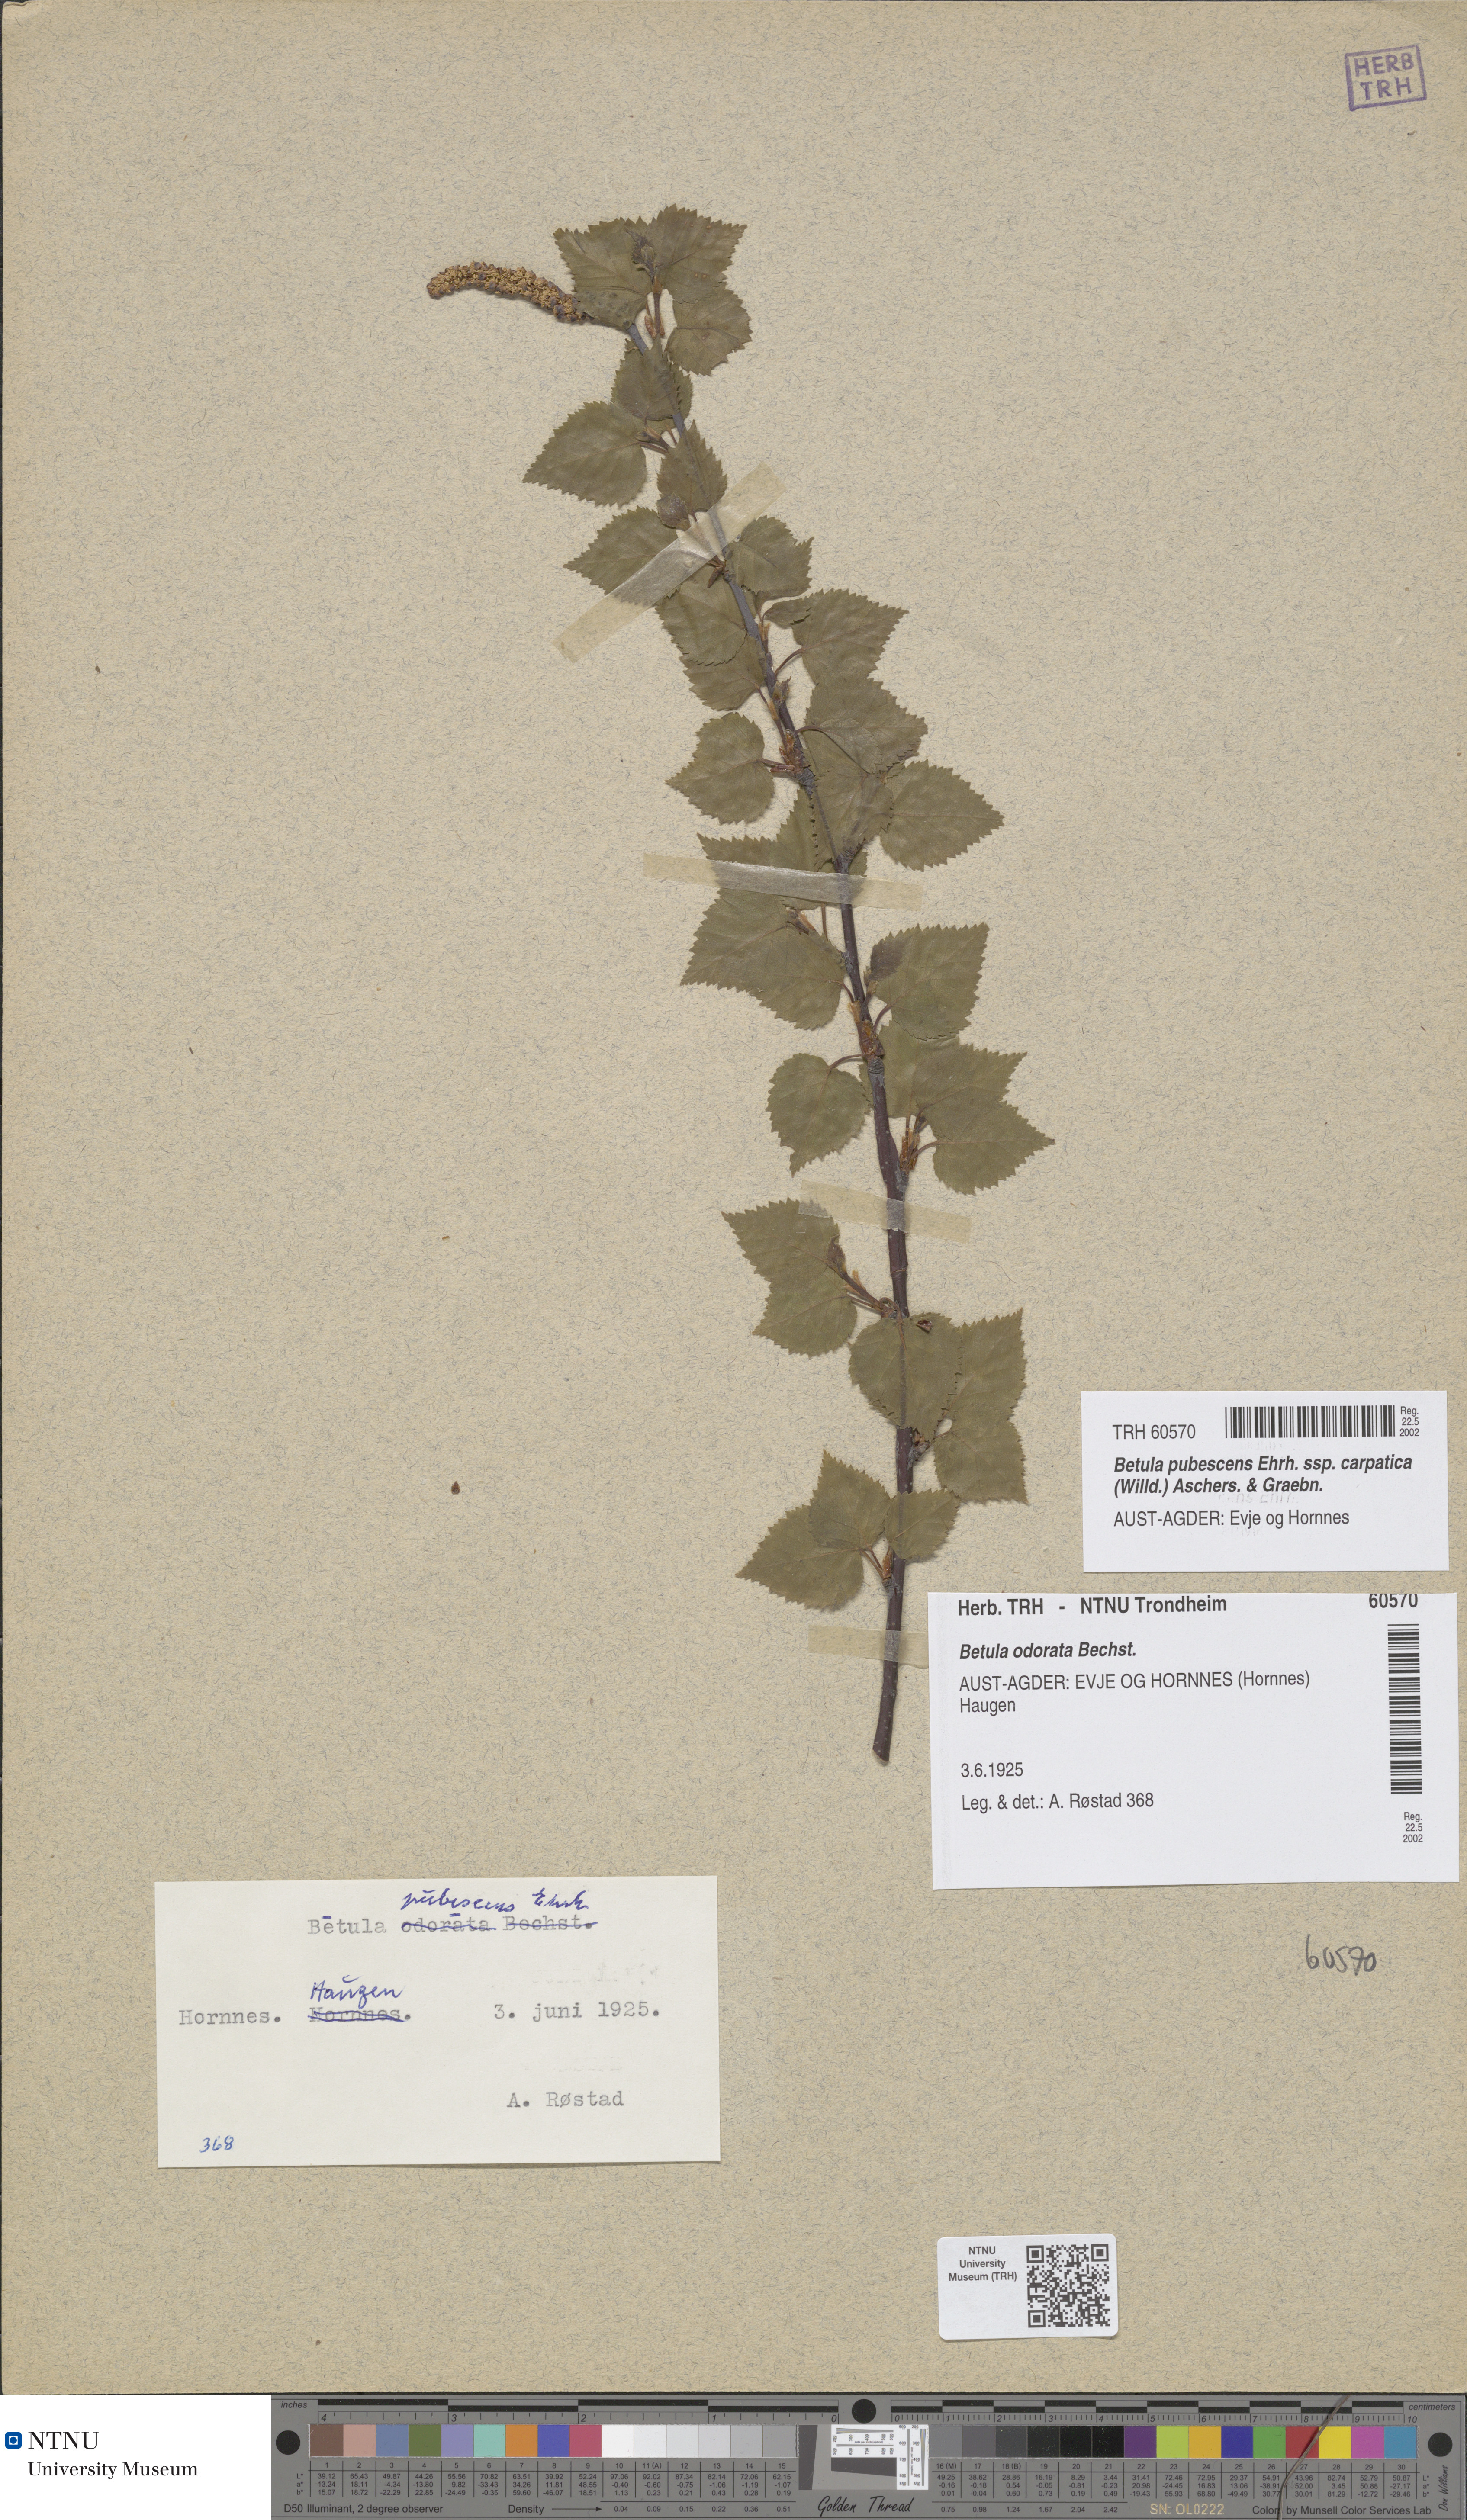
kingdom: Plantae
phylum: Tracheophyta
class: Magnoliopsida
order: Fagales
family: Betulaceae
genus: Betula
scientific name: Betula pubescens
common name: Downy birch
